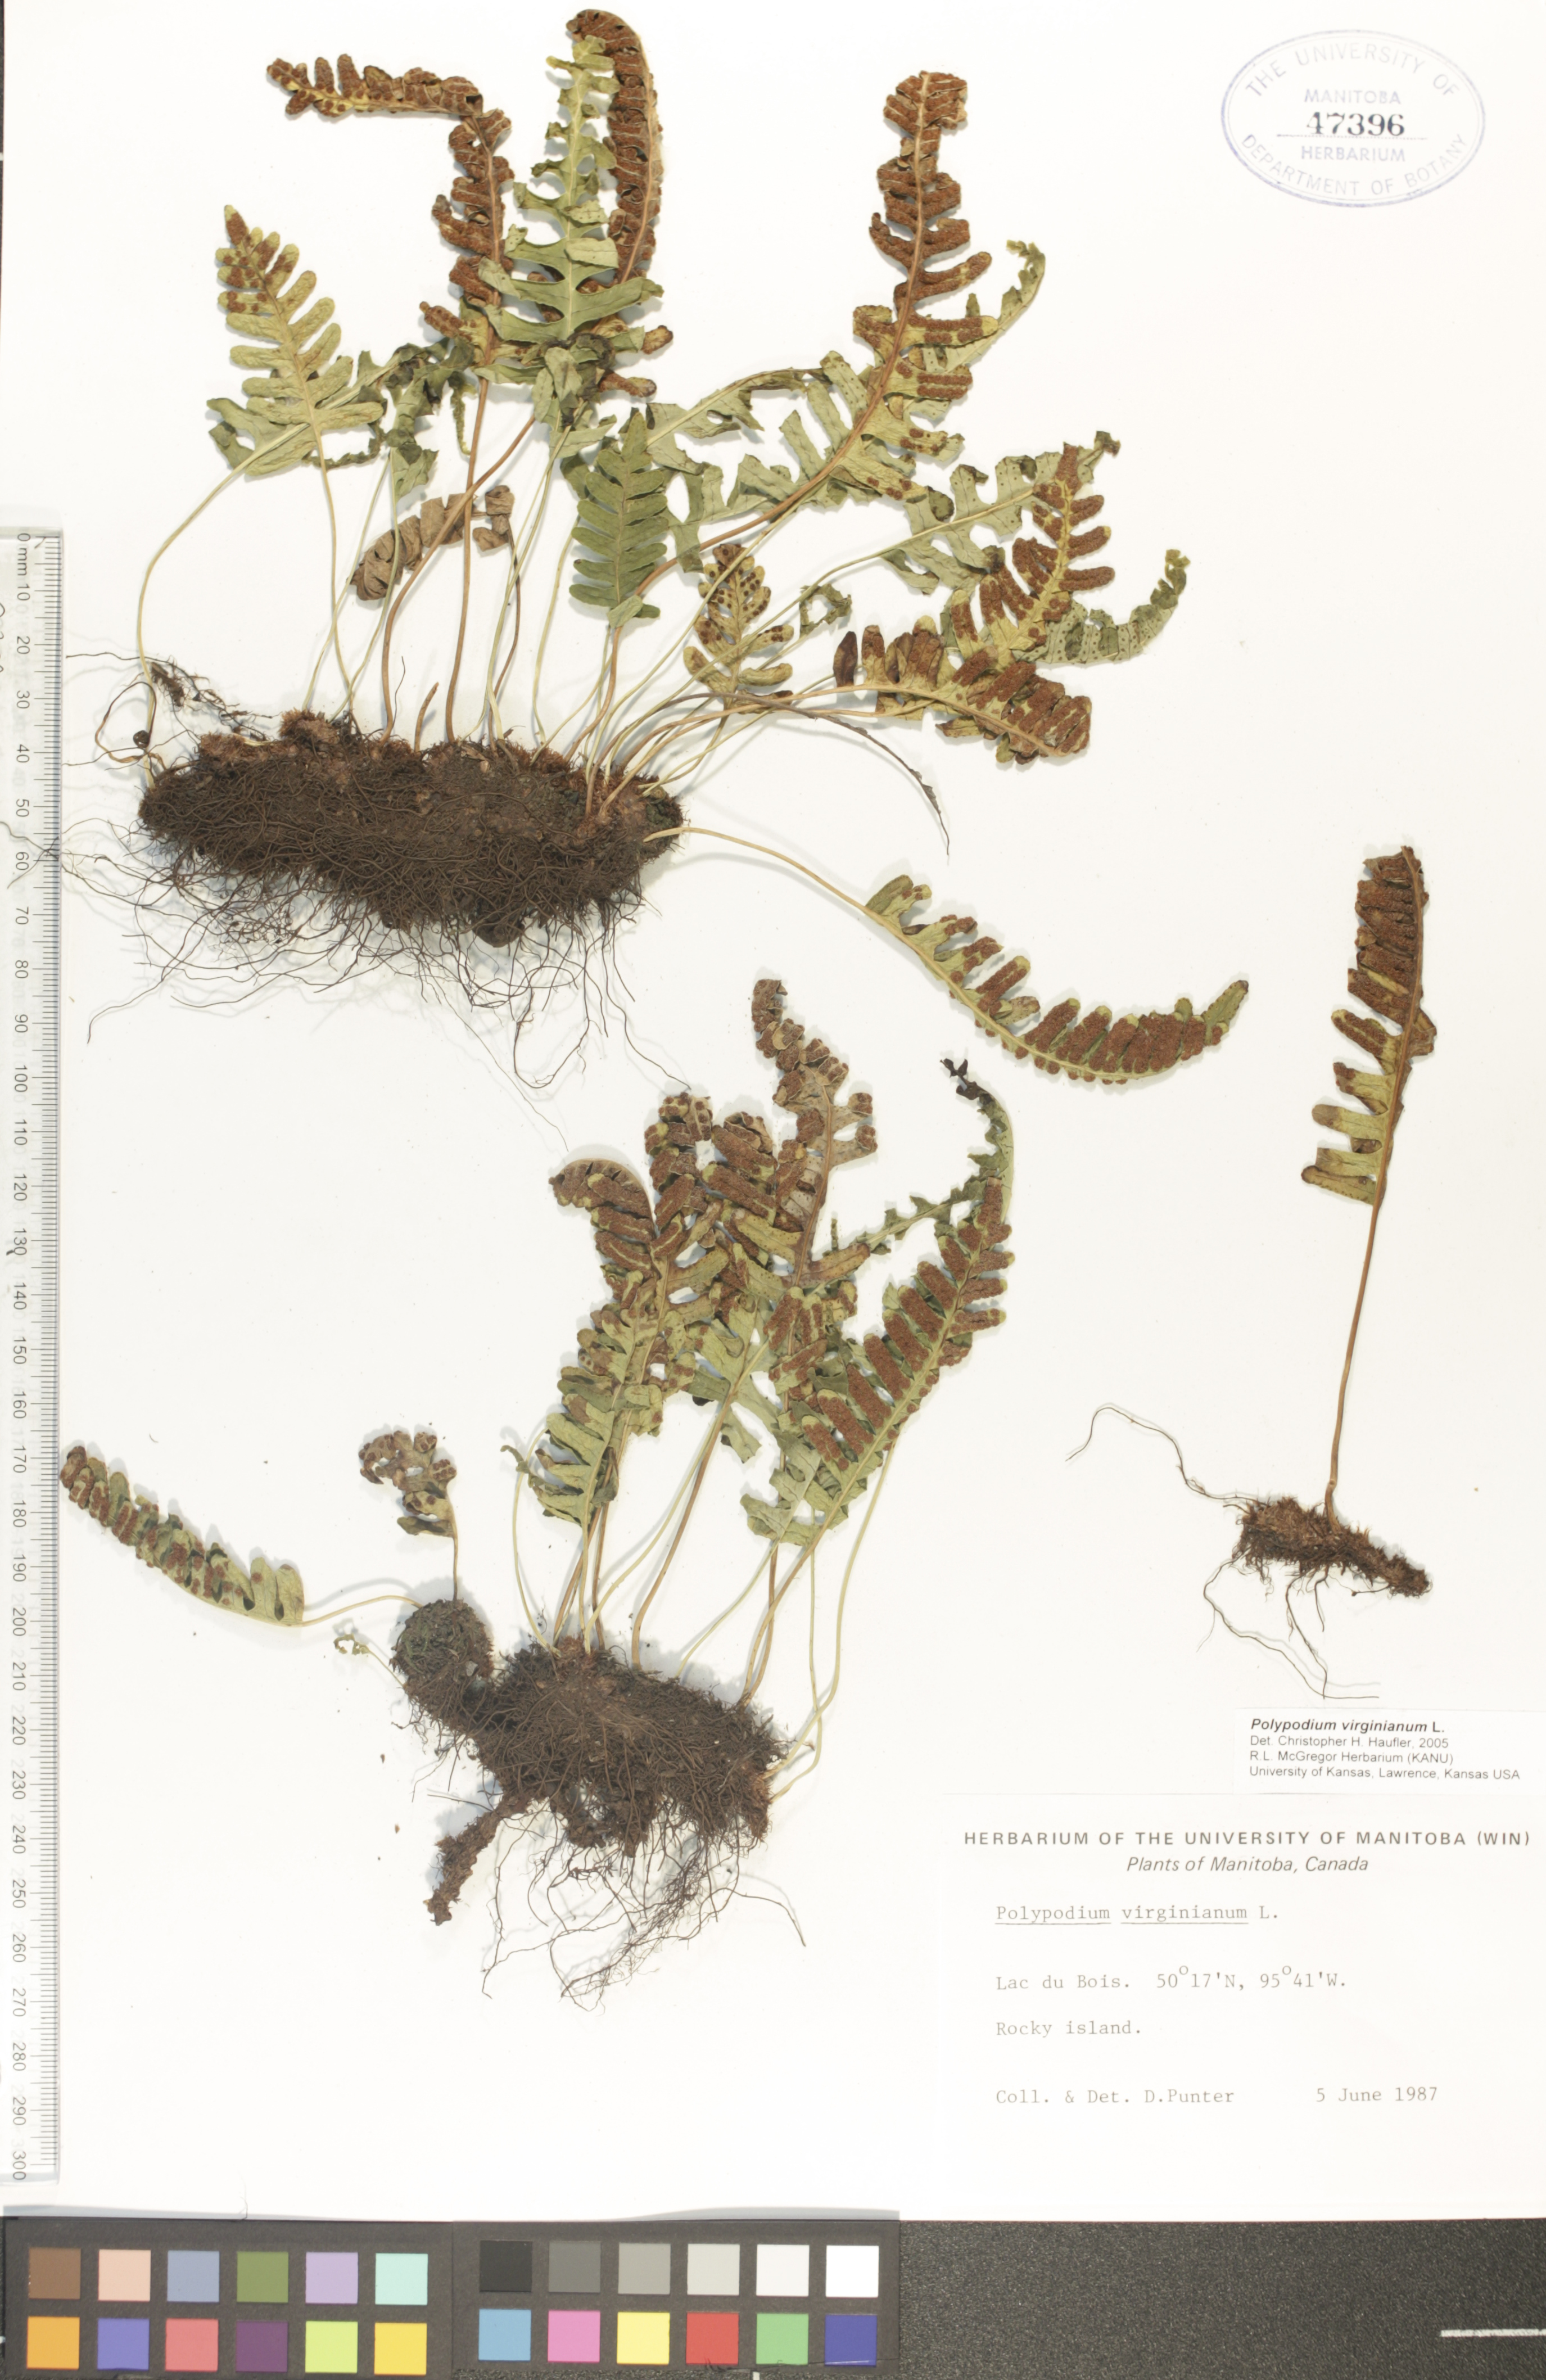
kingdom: Plantae
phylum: Tracheophyta
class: Polypodiopsida
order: Polypodiales
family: Polypodiaceae
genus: Polypodium
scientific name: Polypodium virginianum
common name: American wall fern
